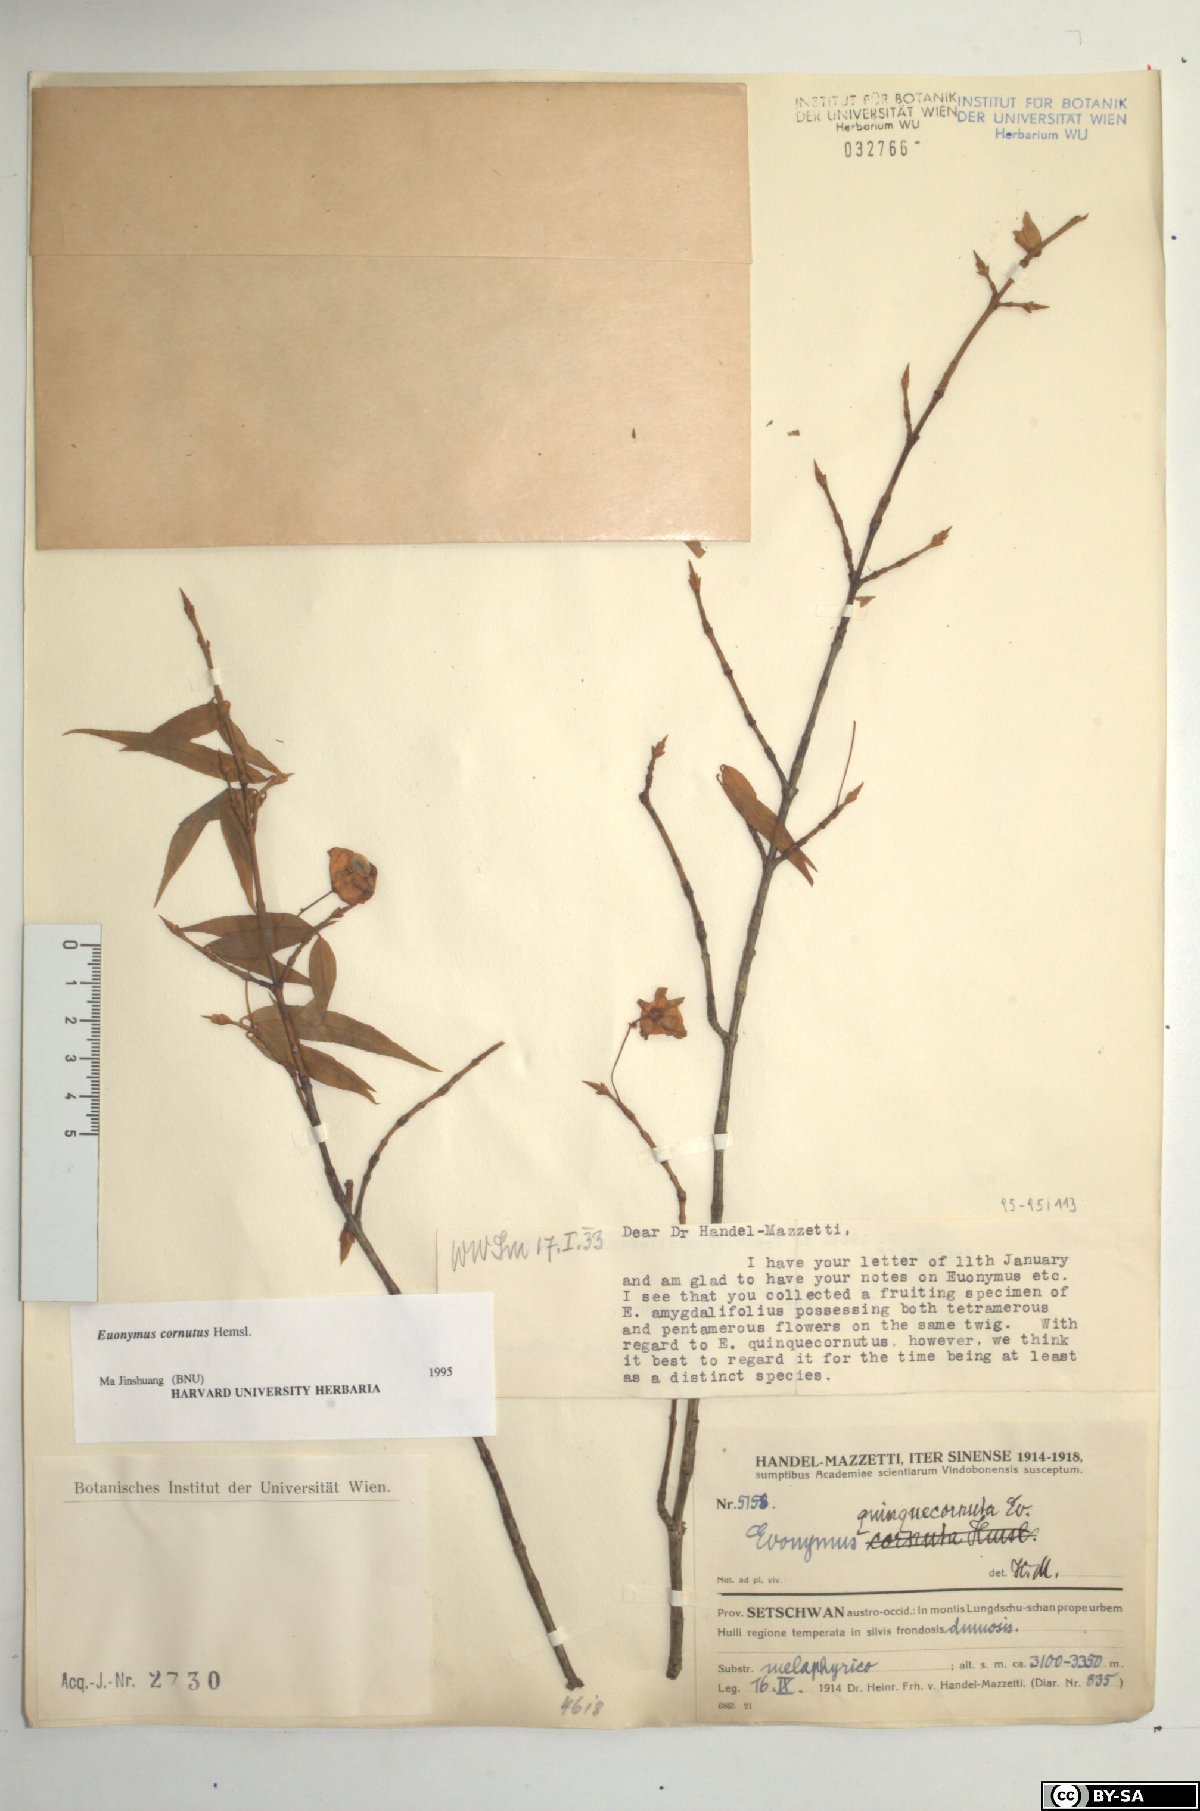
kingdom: Plantae
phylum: Tracheophyta
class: Magnoliopsida
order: Celastrales
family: Celastraceae
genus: Euonymus
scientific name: Euonymus cornutus
